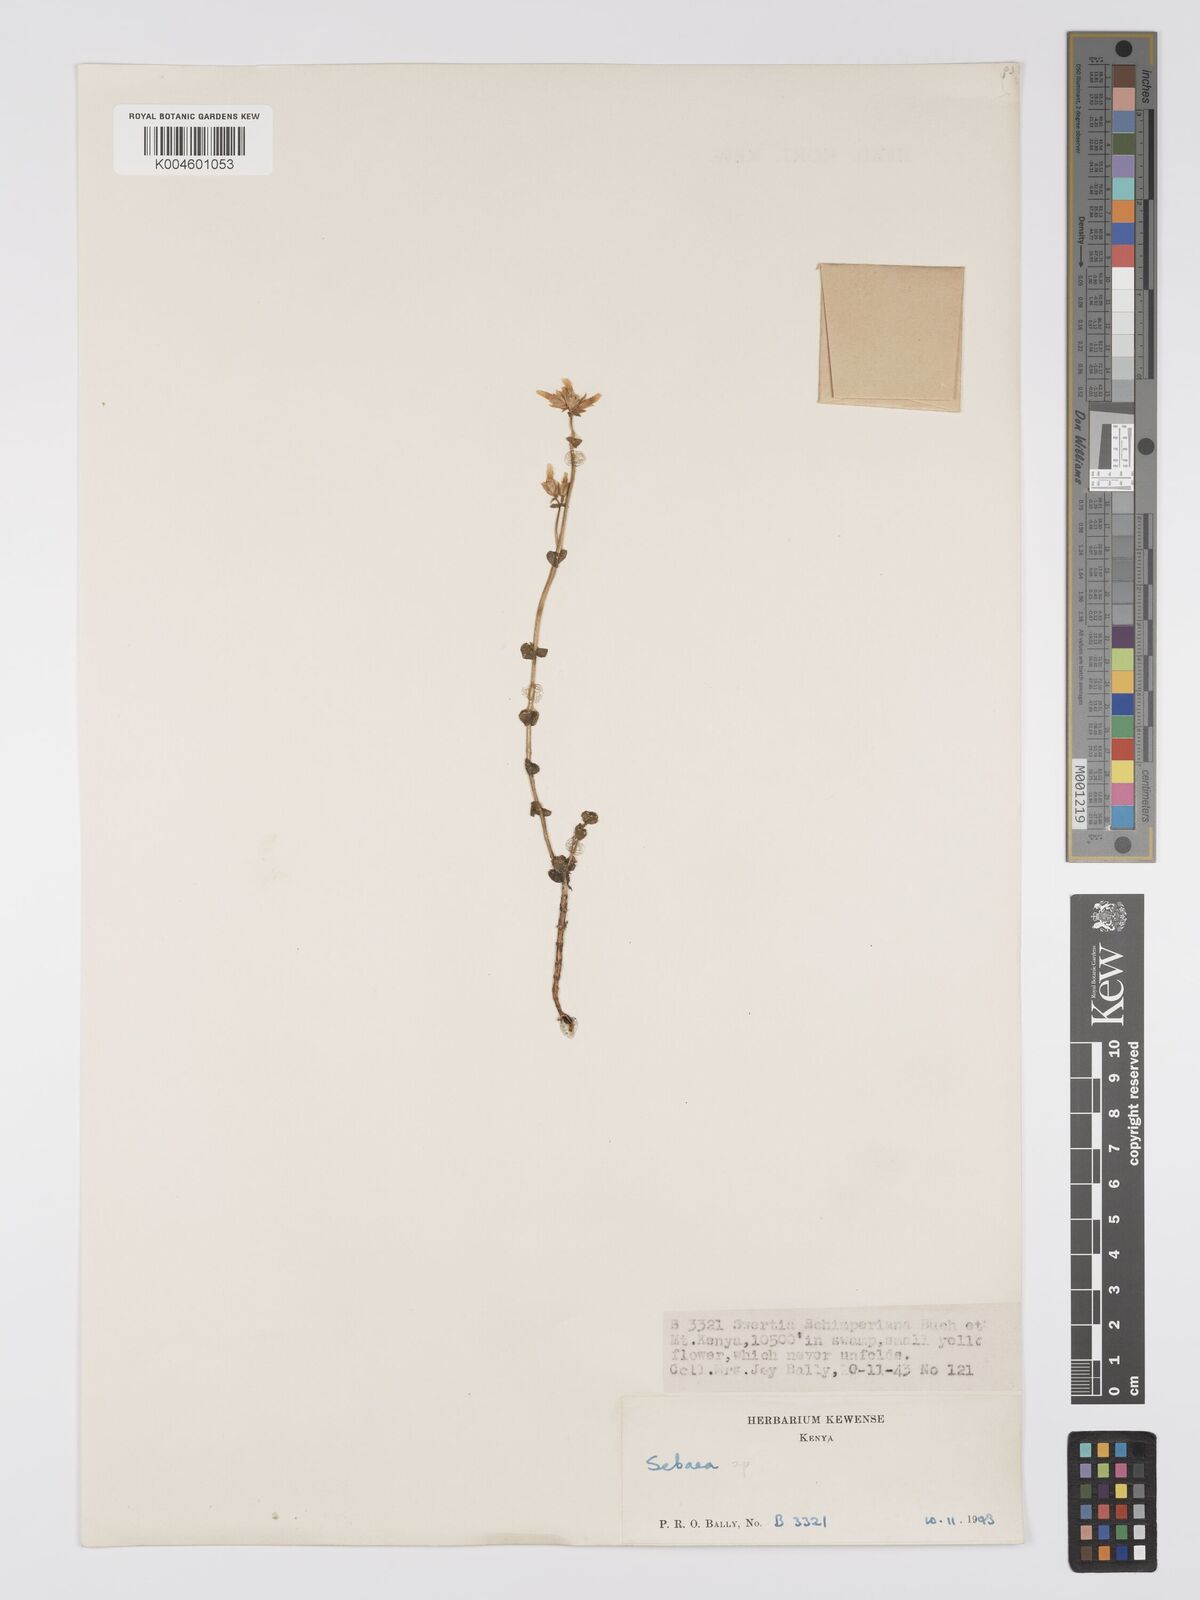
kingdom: Plantae
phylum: Tracheophyta
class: Magnoliopsida
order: Gentianales
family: Gentianaceae
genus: Sebaea
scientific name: Sebaea brachyphylla
